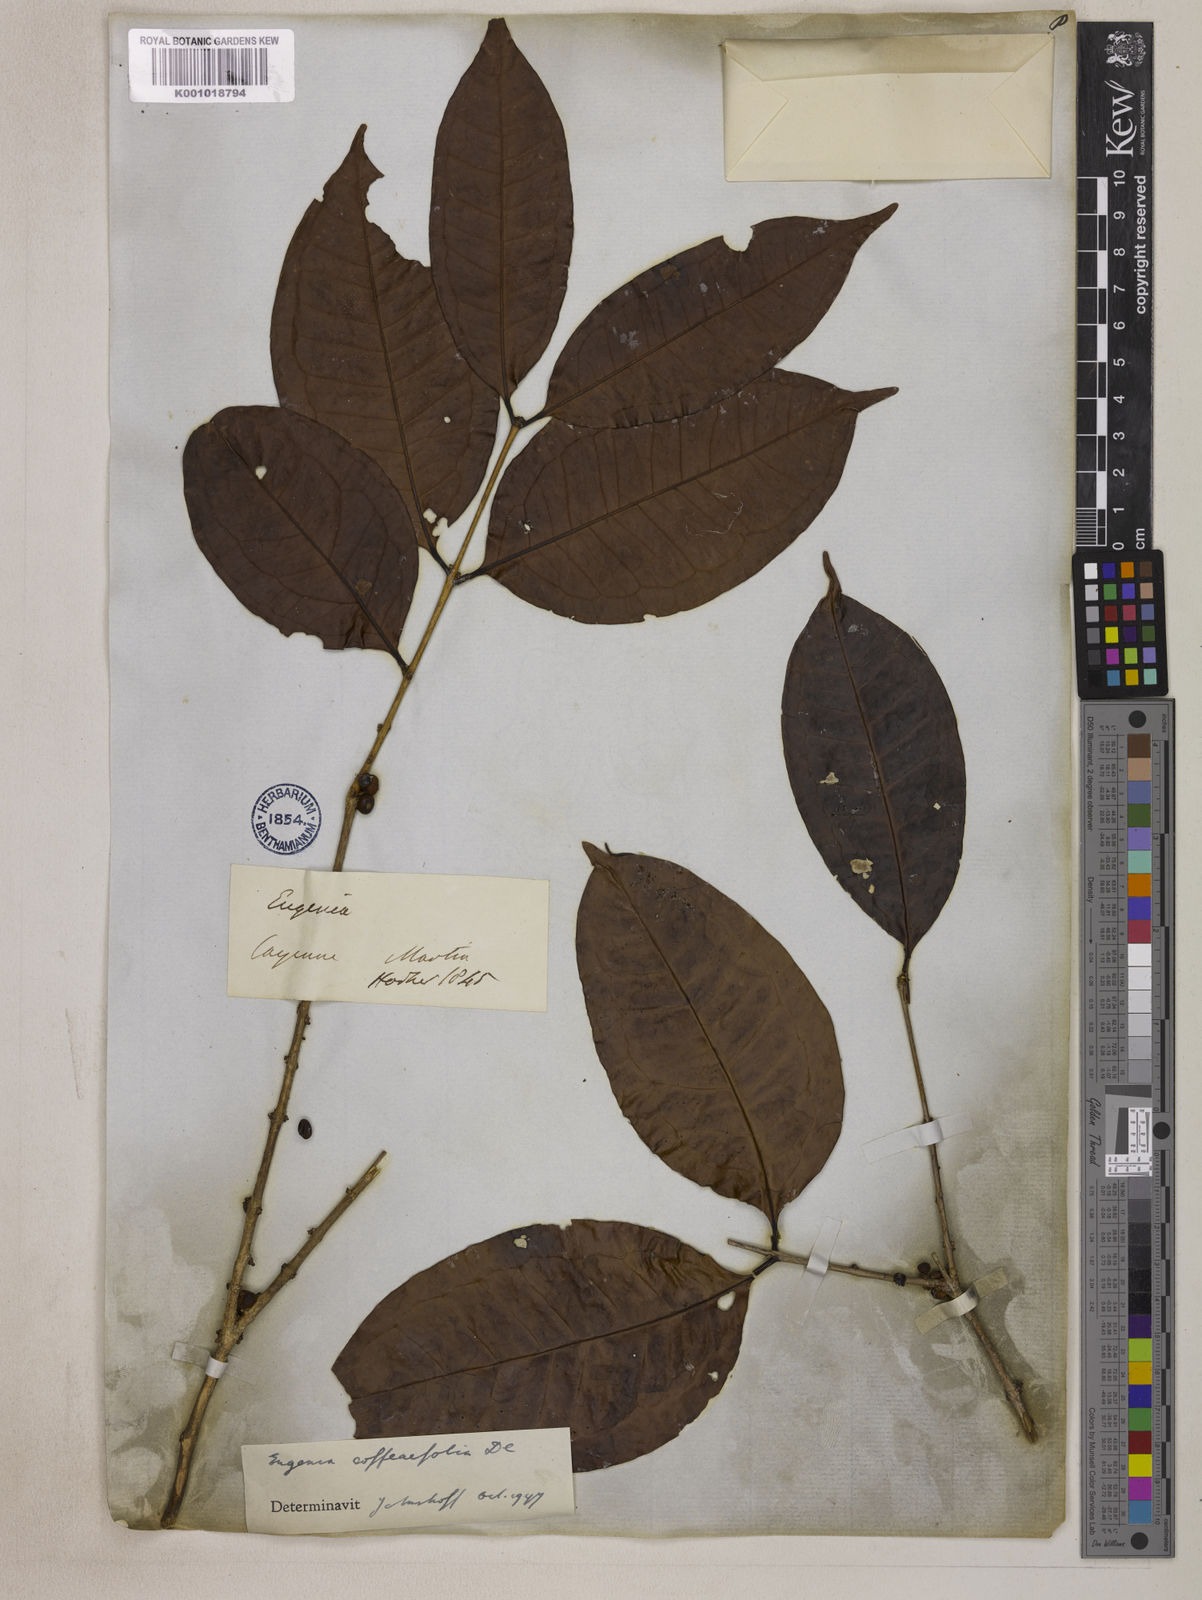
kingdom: Plantae
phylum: Tracheophyta
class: Magnoliopsida
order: Myrtales
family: Myrtaceae
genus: Eugenia
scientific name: Eugenia coffeifolia
